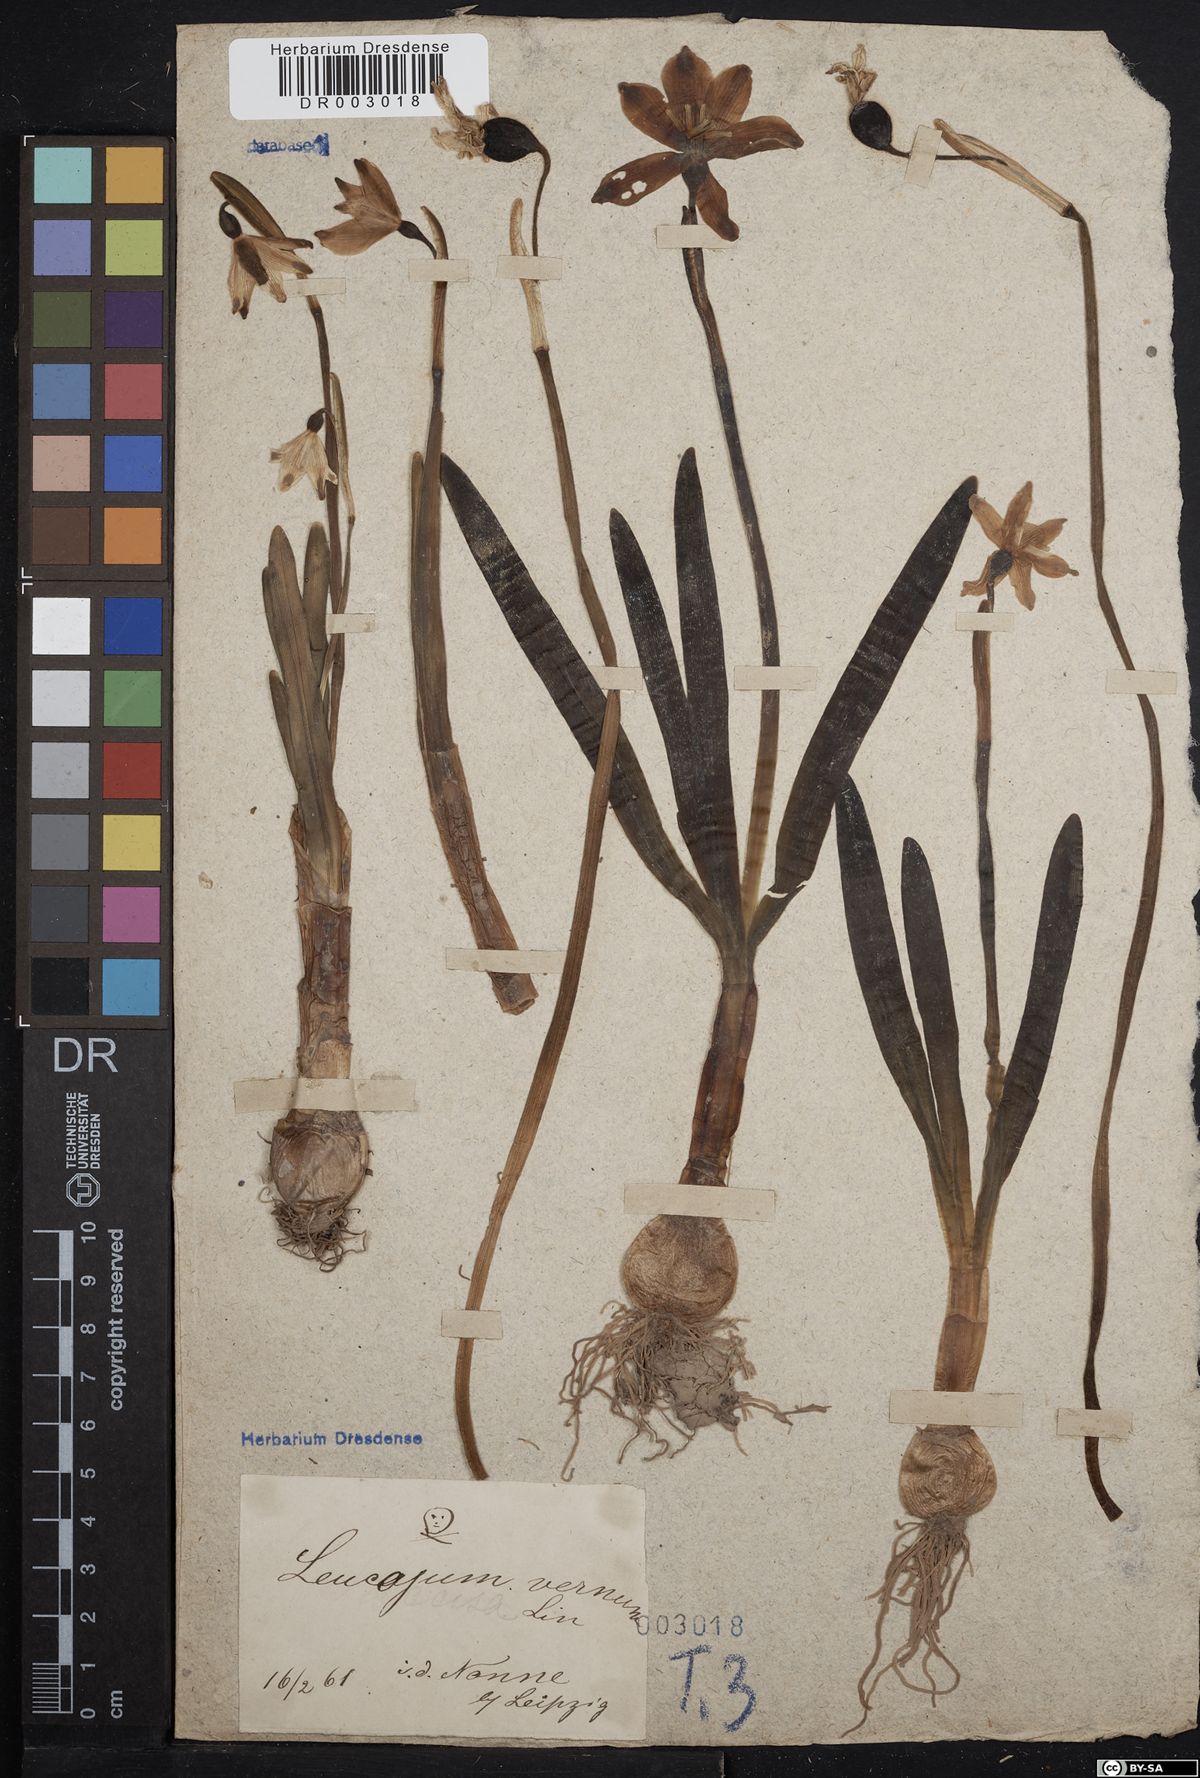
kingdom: Plantae
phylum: Tracheophyta
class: Liliopsida
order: Asparagales
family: Amaryllidaceae
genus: Leucojum
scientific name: Leucojum vernum
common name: Spring snowflake
